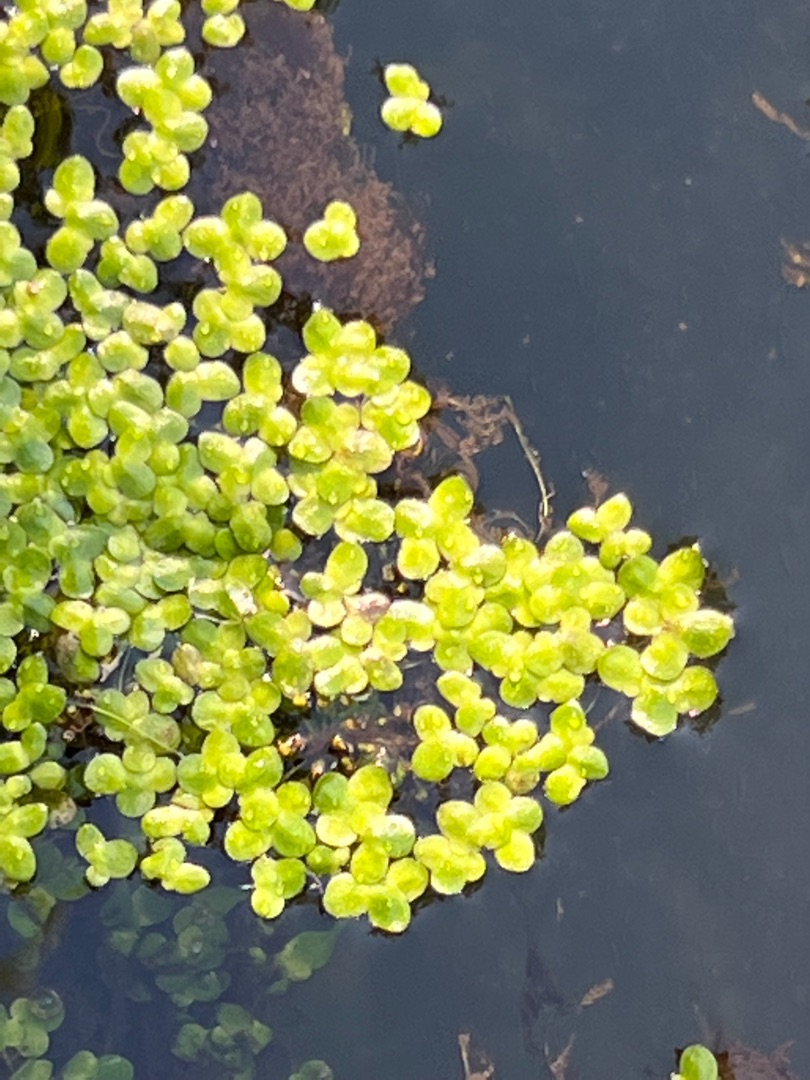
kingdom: Plantae
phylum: Tracheophyta
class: Liliopsida
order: Alismatales
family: Araceae
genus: Lemna
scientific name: Lemna minor
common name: Liden andemad
